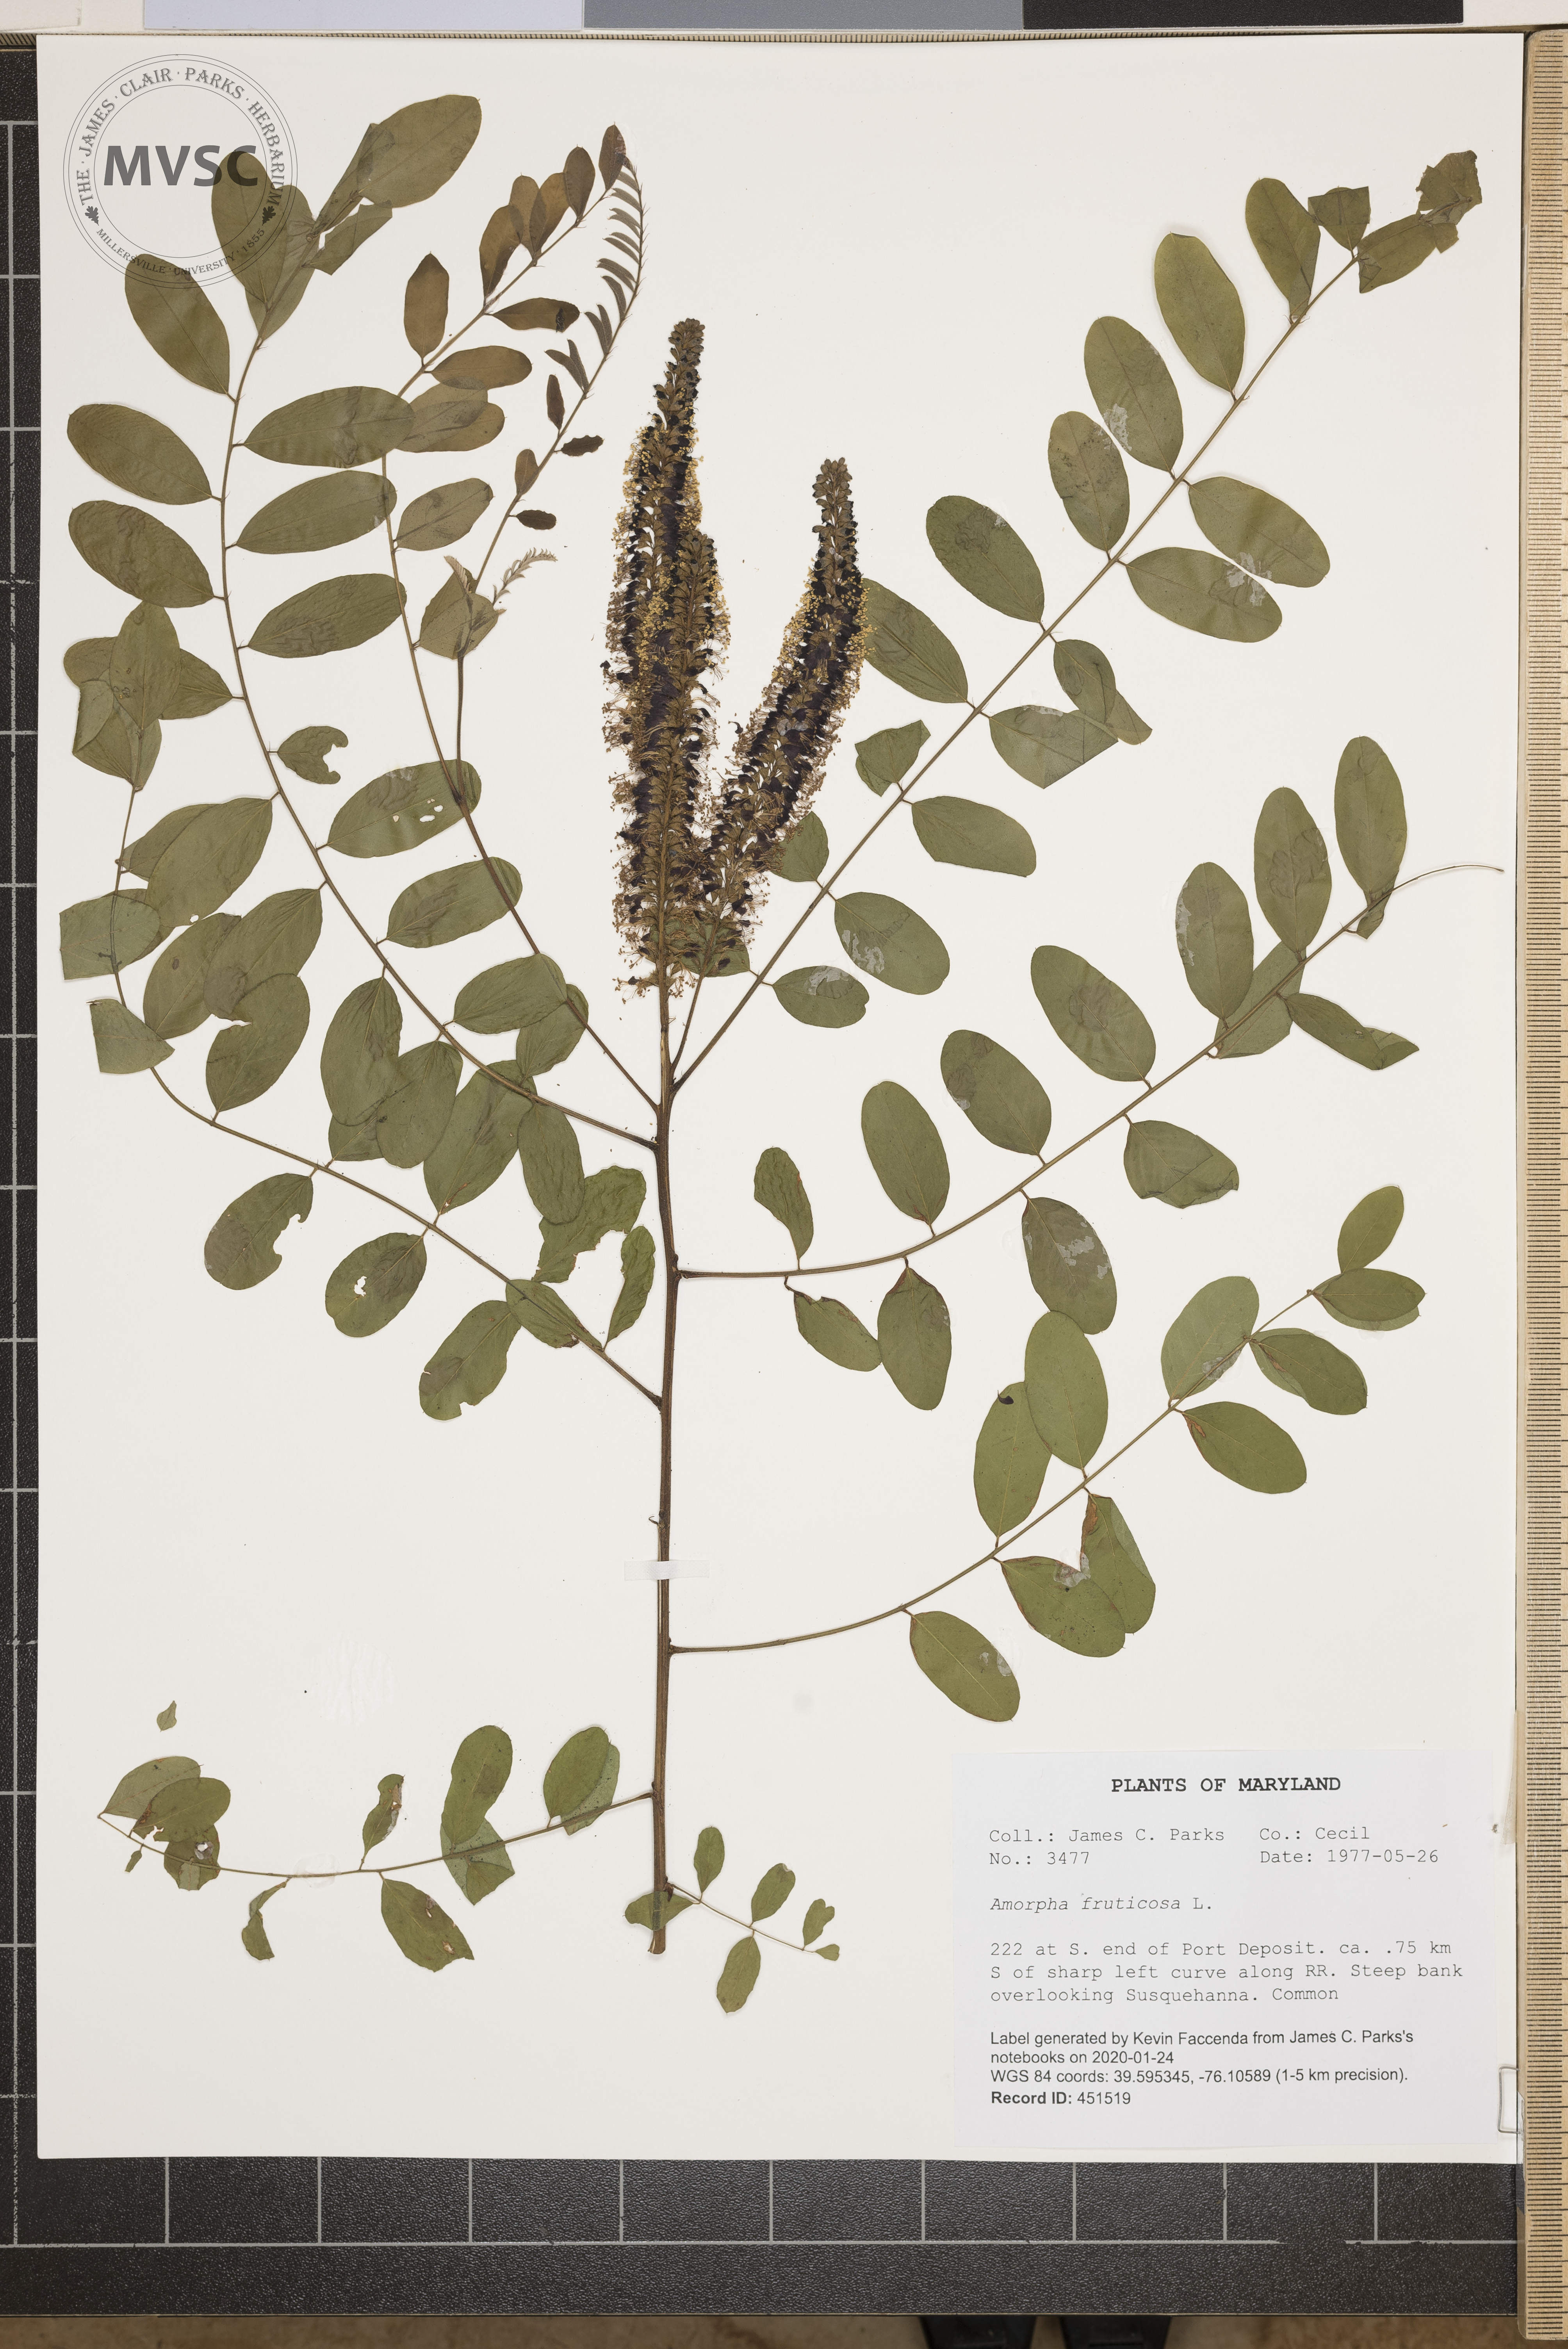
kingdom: Plantae
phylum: Tracheophyta
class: Magnoliopsida
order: Fabales
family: Fabaceae
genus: Amorpha
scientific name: Amorpha fruticosa
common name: False indigo
